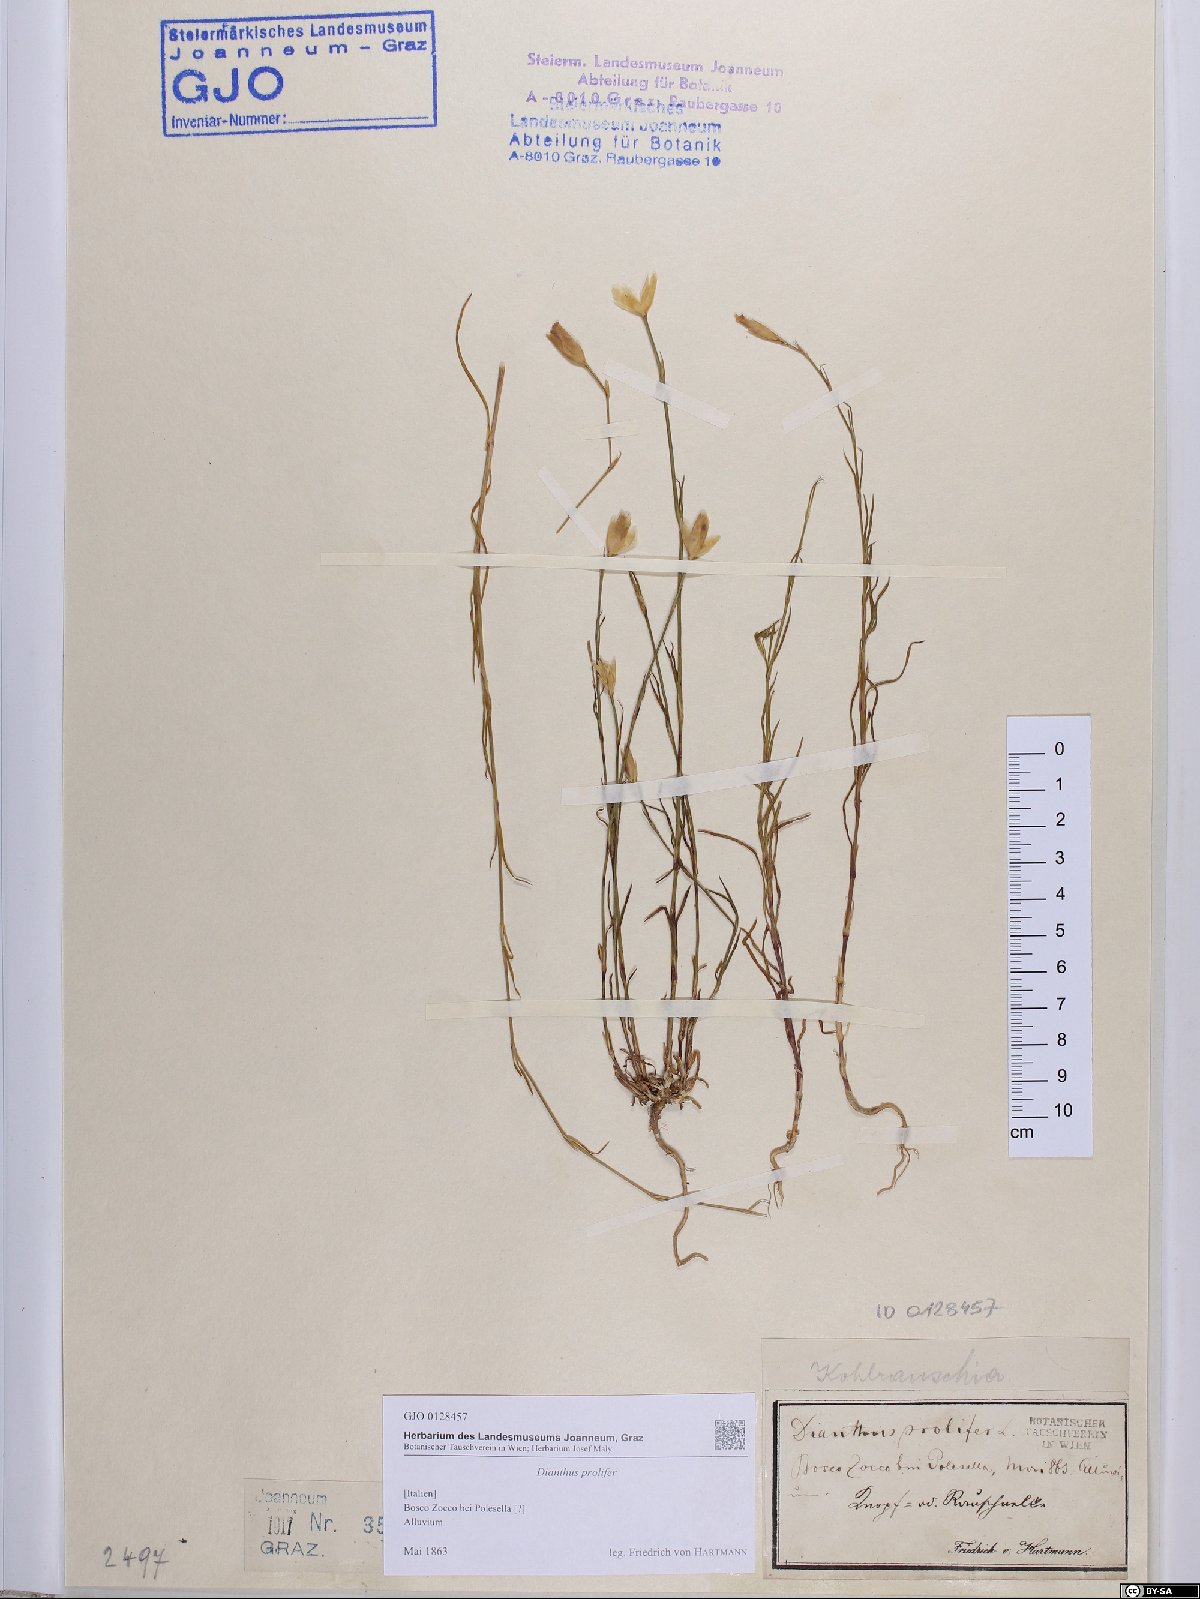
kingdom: Plantae
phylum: Tracheophyta
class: Magnoliopsida
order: Caryophyllales
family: Caryophyllaceae
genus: Petrorhagia
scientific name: Petrorhagia prolifera
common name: Proliferous pink
